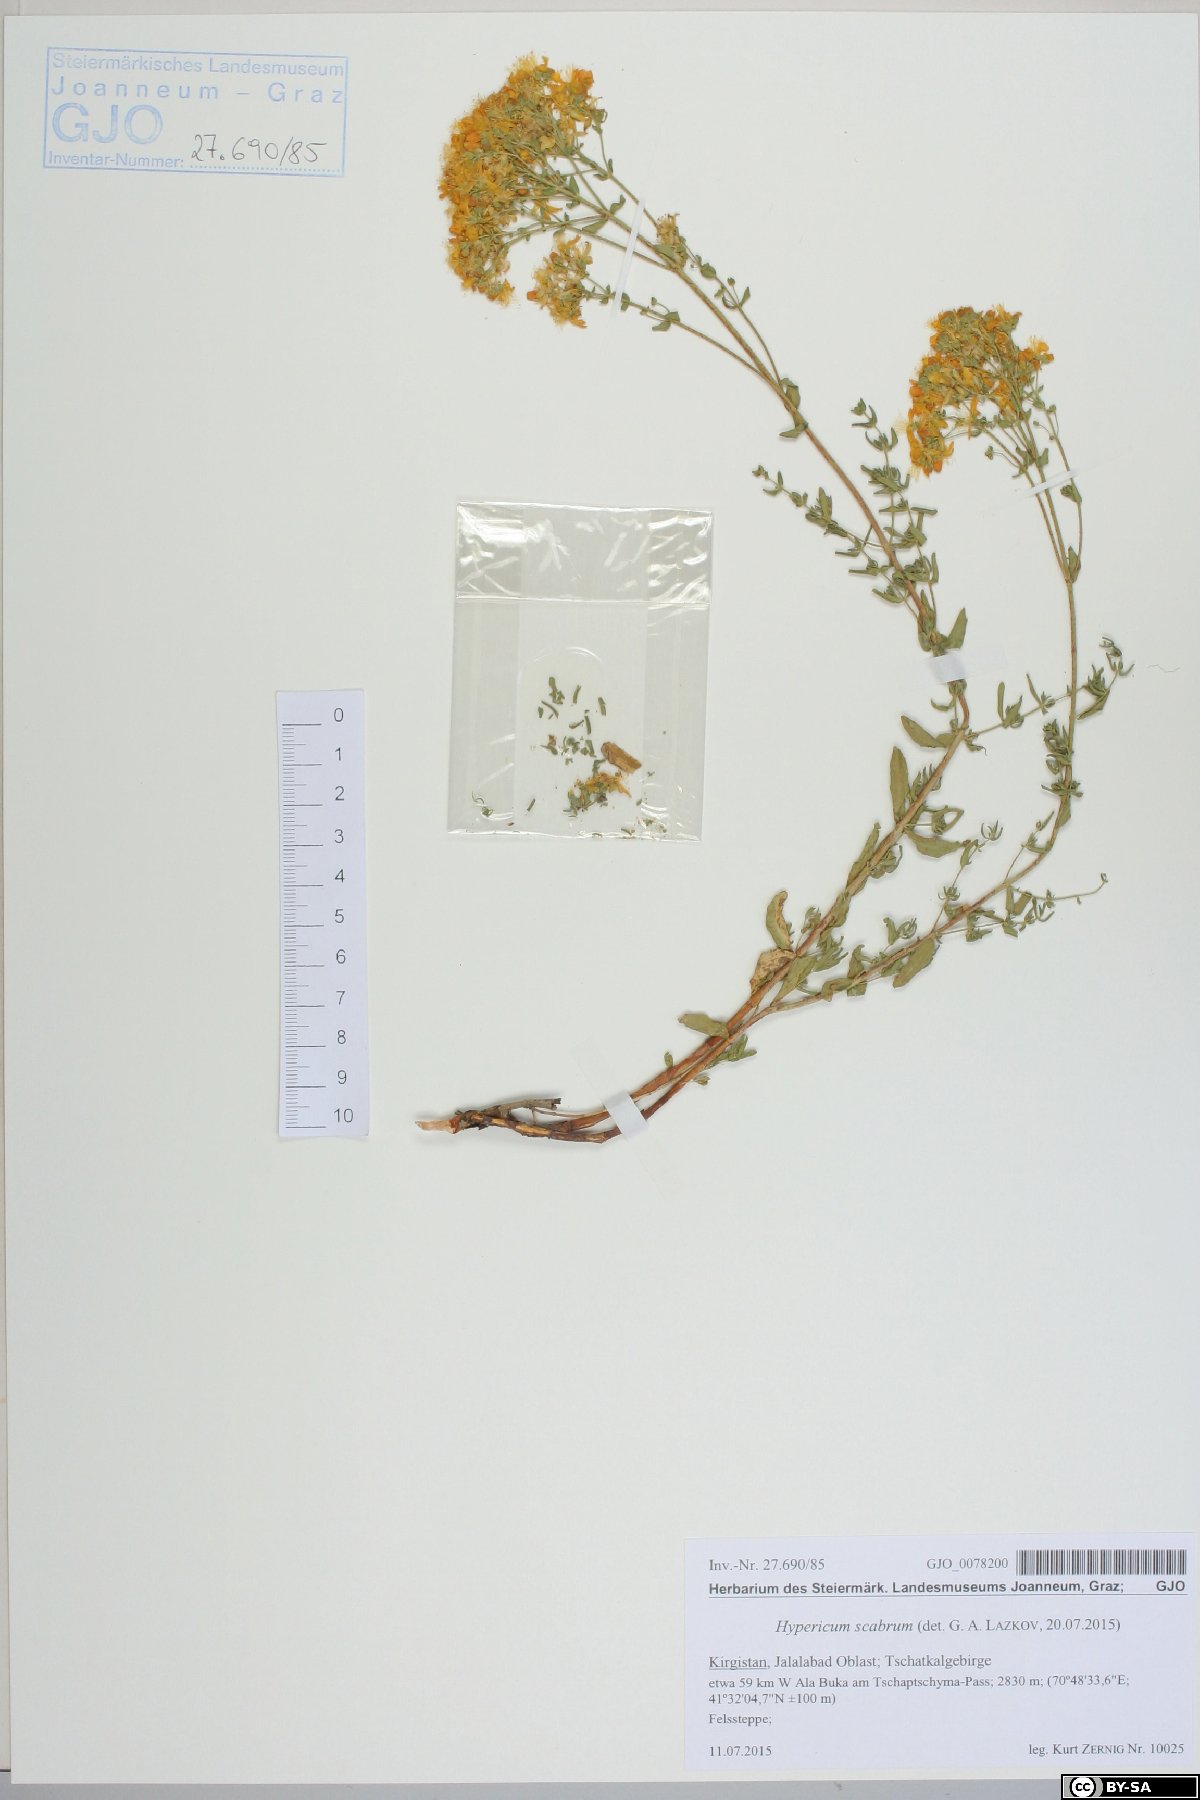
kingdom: Plantae
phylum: Tracheophyta
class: Magnoliopsida
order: Malpighiales
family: Hypericaceae
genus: Hypericum
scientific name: Hypericum scabrum
